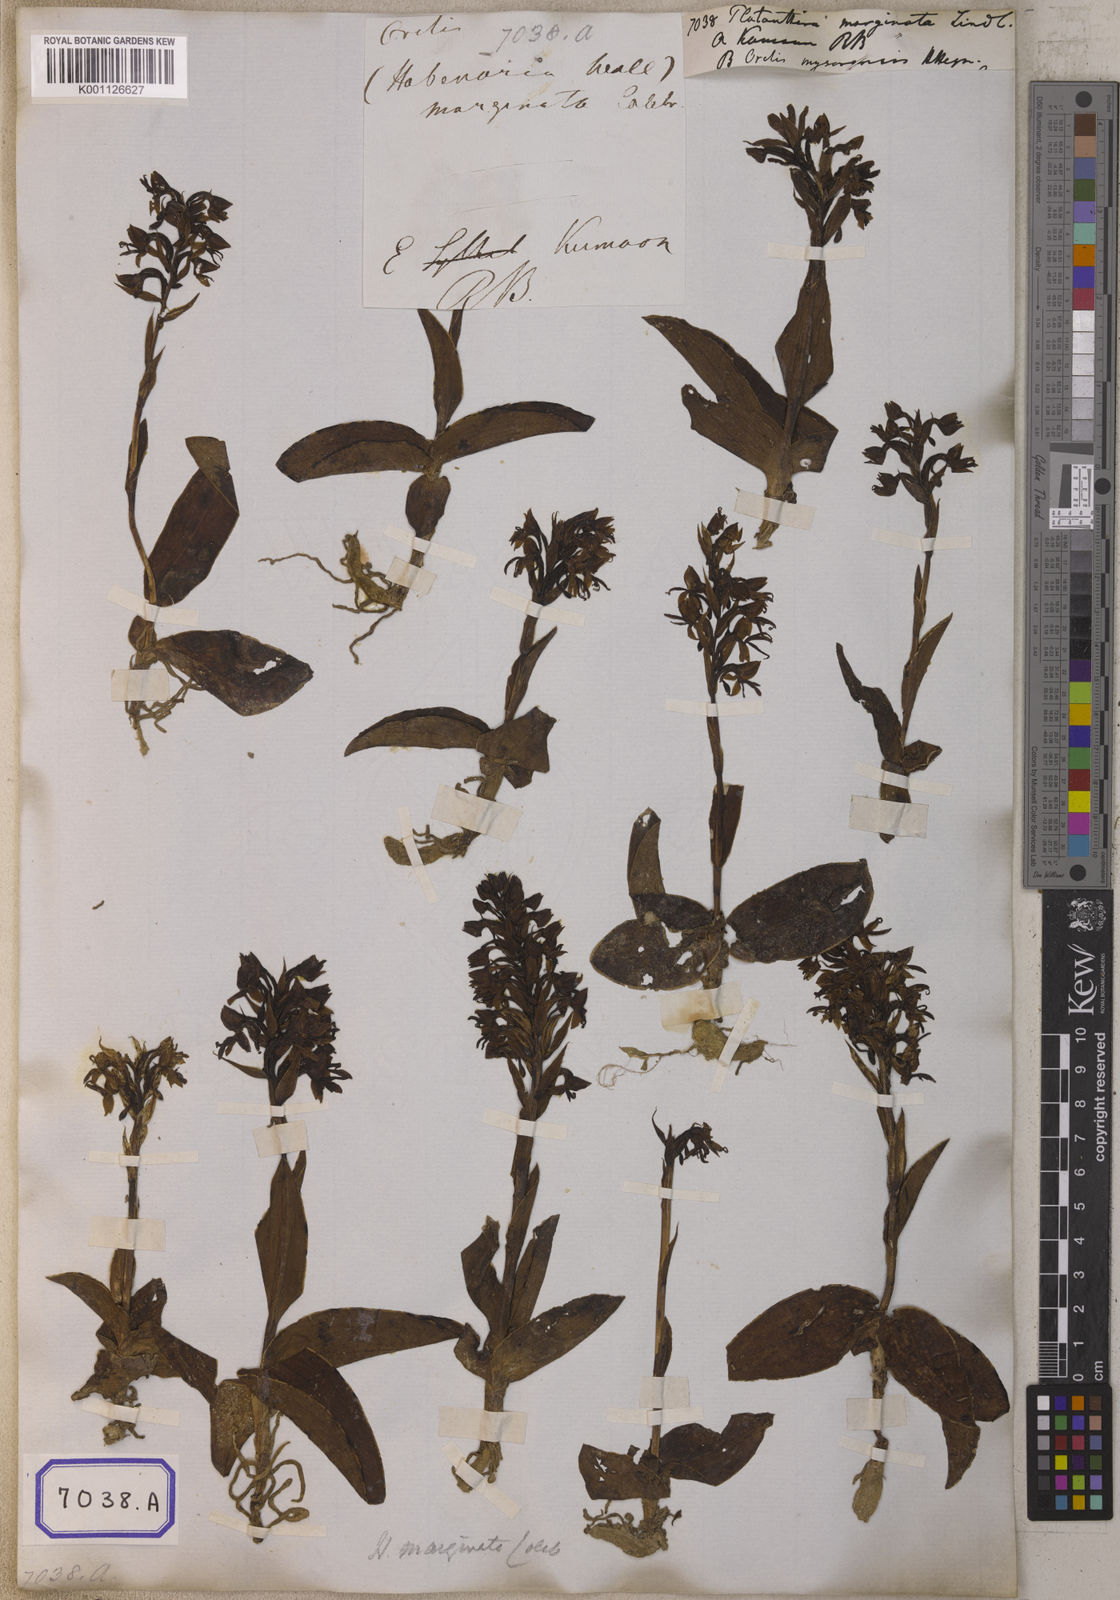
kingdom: Plantae
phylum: Tracheophyta
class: Liliopsida
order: Asparagales
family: Orchidaceae
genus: Platanthera
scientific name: Platanthera
